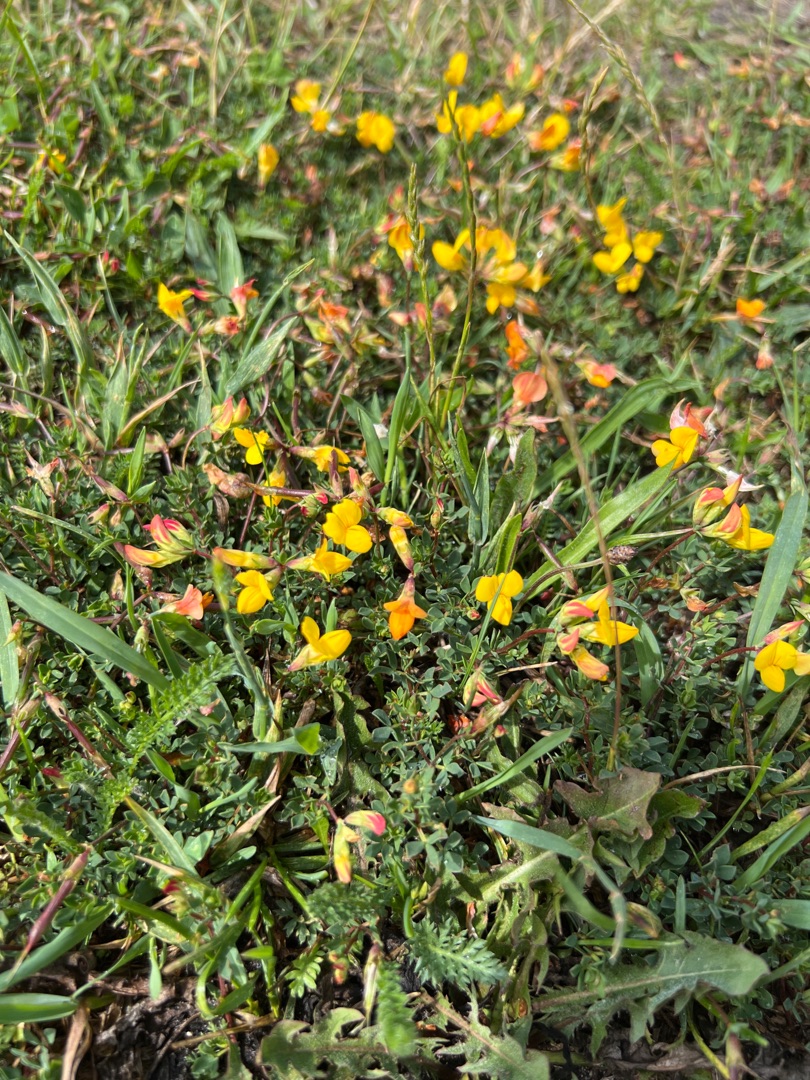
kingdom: Plantae
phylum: Tracheophyta
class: Magnoliopsida
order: Fabales
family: Fabaceae
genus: Lotus
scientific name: Lotus corniculatus
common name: Almindelig kællingetand
